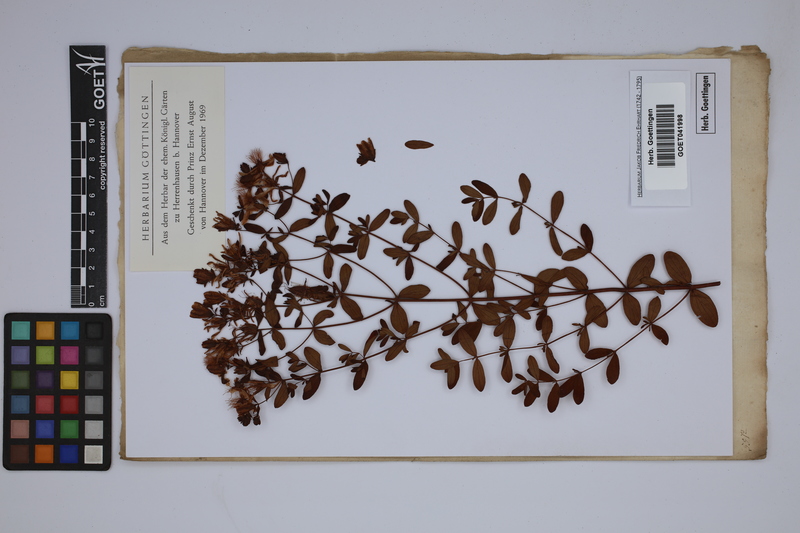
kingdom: Plantae
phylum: Tracheophyta
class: Magnoliopsida
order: Malpighiales
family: Hypericaceae
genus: Hypericum
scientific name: Hypericum
